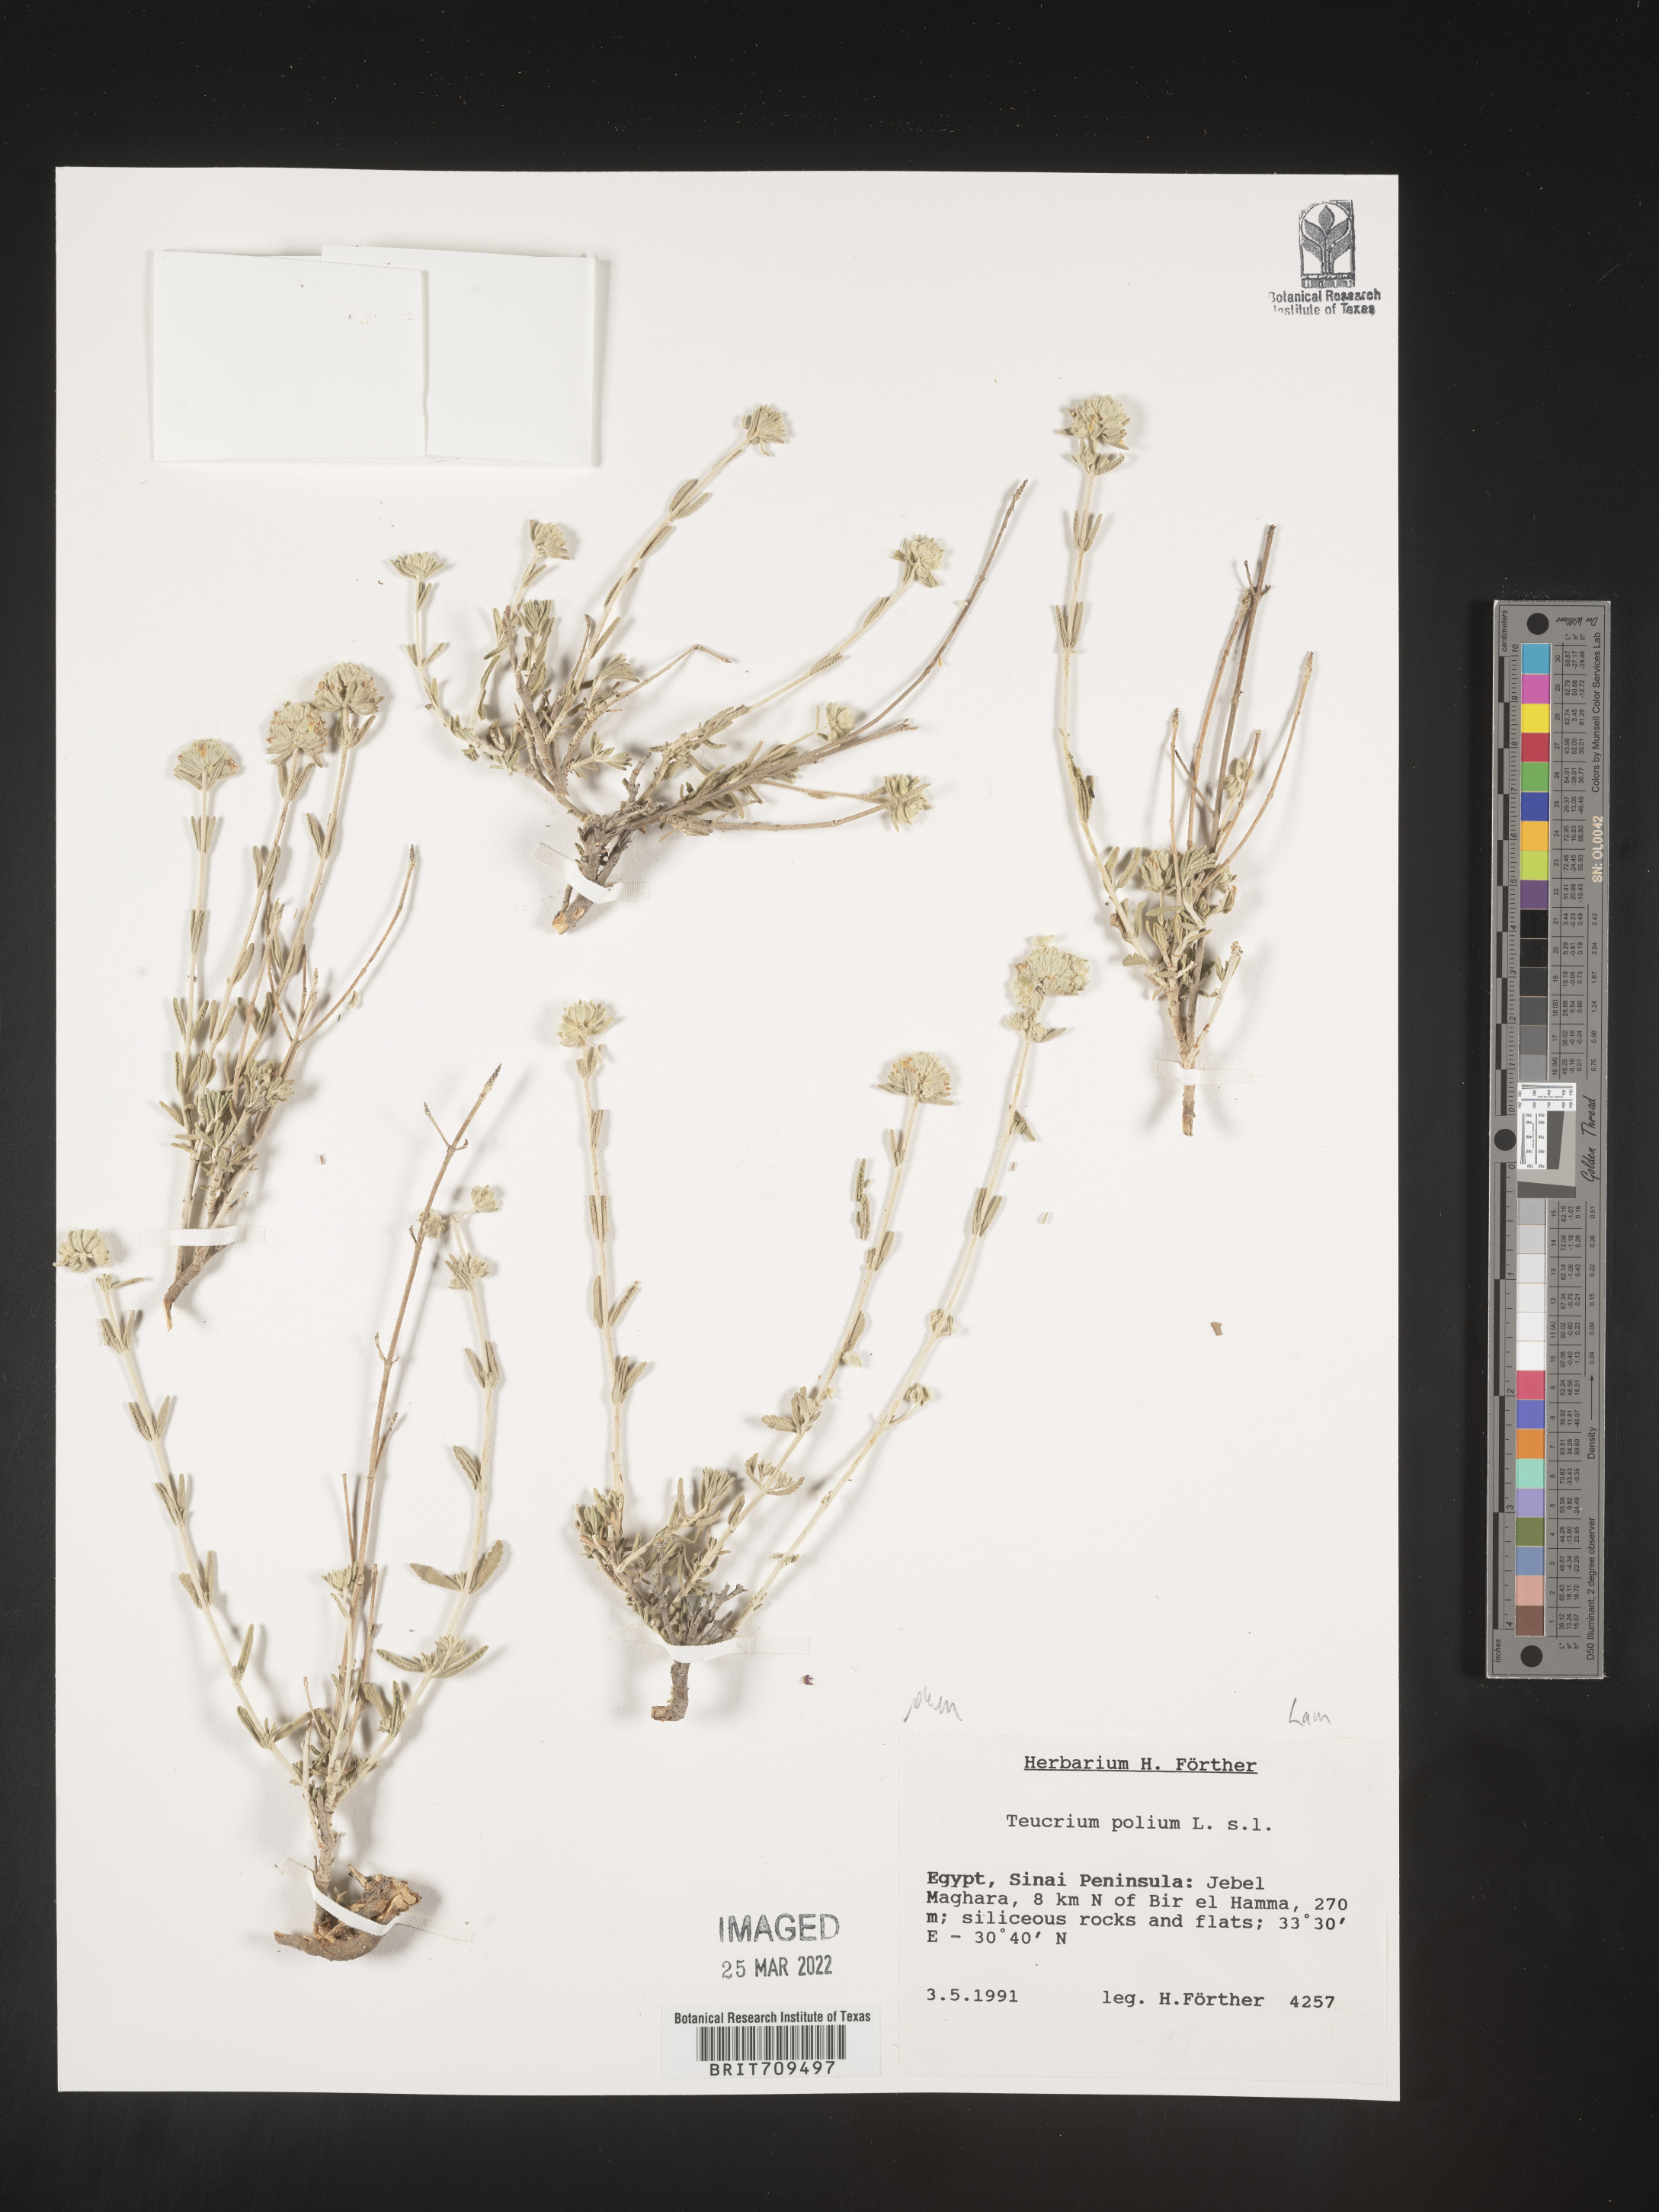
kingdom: Plantae
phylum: Tracheophyta
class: Magnoliopsida
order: Lamiales
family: Lamiaceae
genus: Teucrium
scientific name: Teucrium
